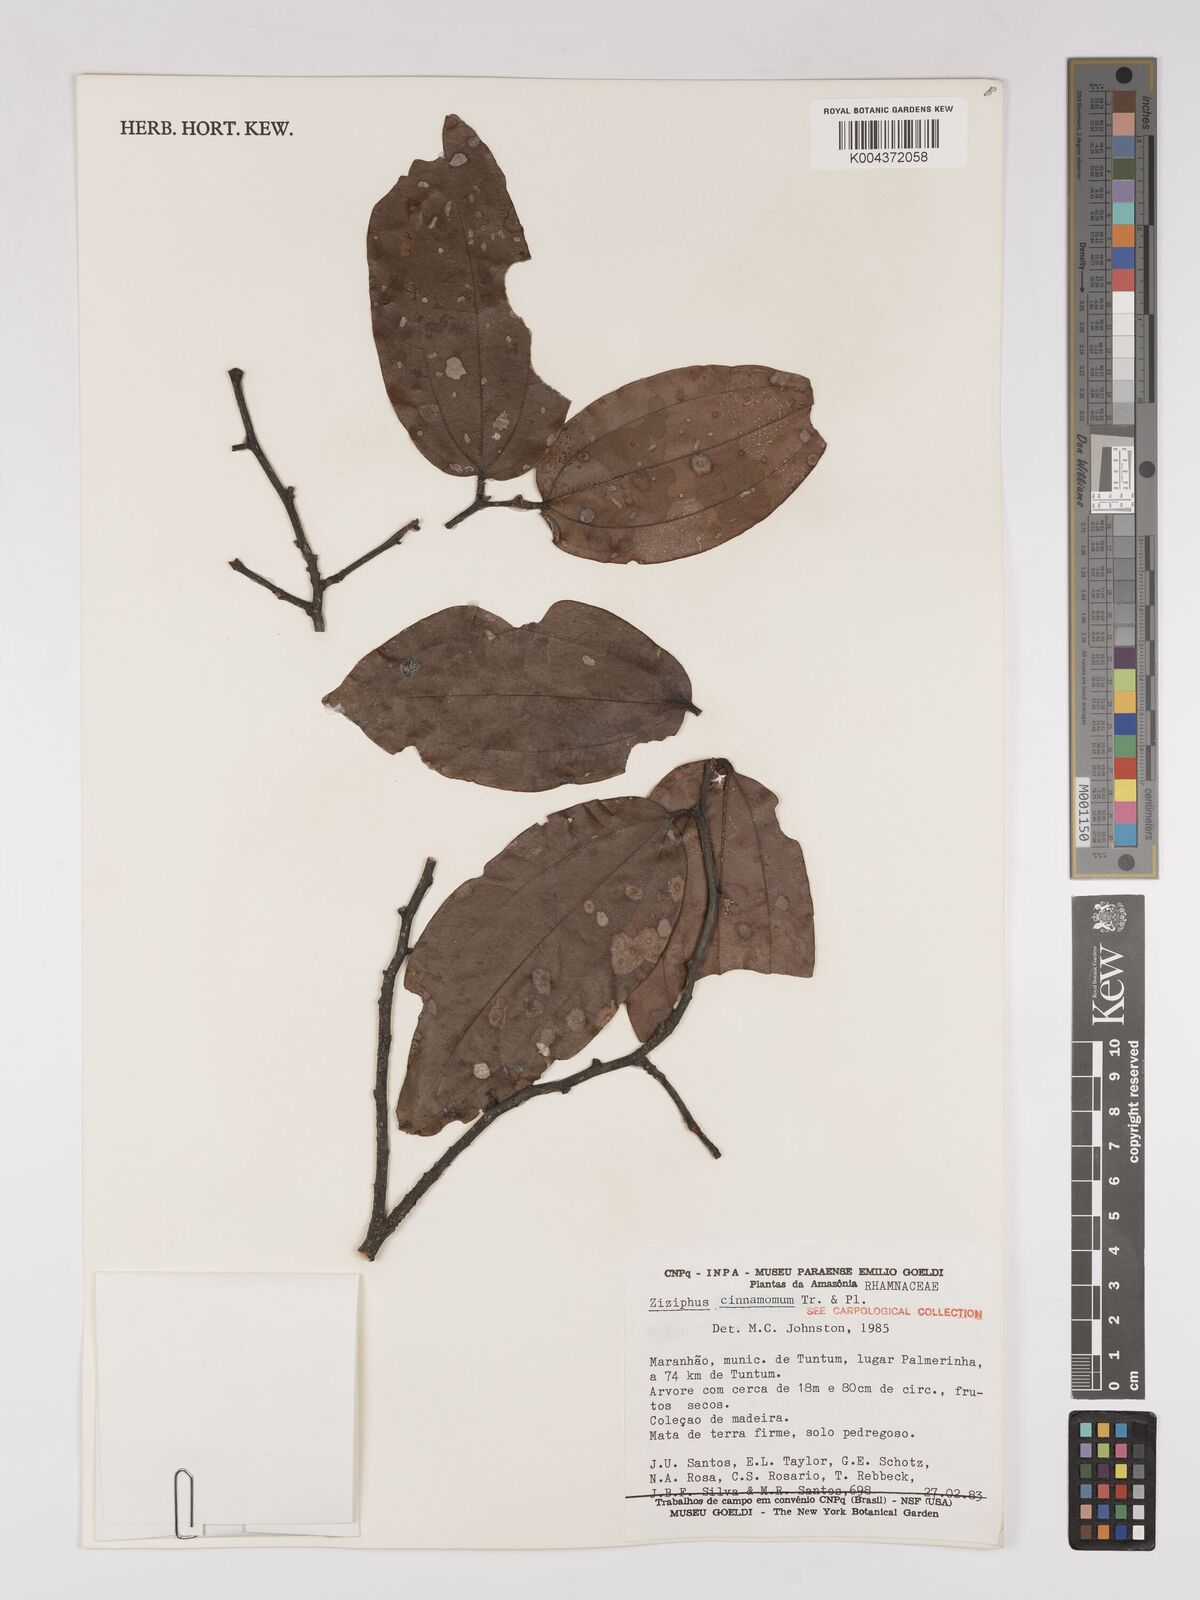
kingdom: Plantae
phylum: Tracheophyta
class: Magnoliopsida
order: Rosales
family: Rhamnaceae
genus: Sarcomphalus
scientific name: Sarcomphalus cinnamomum
